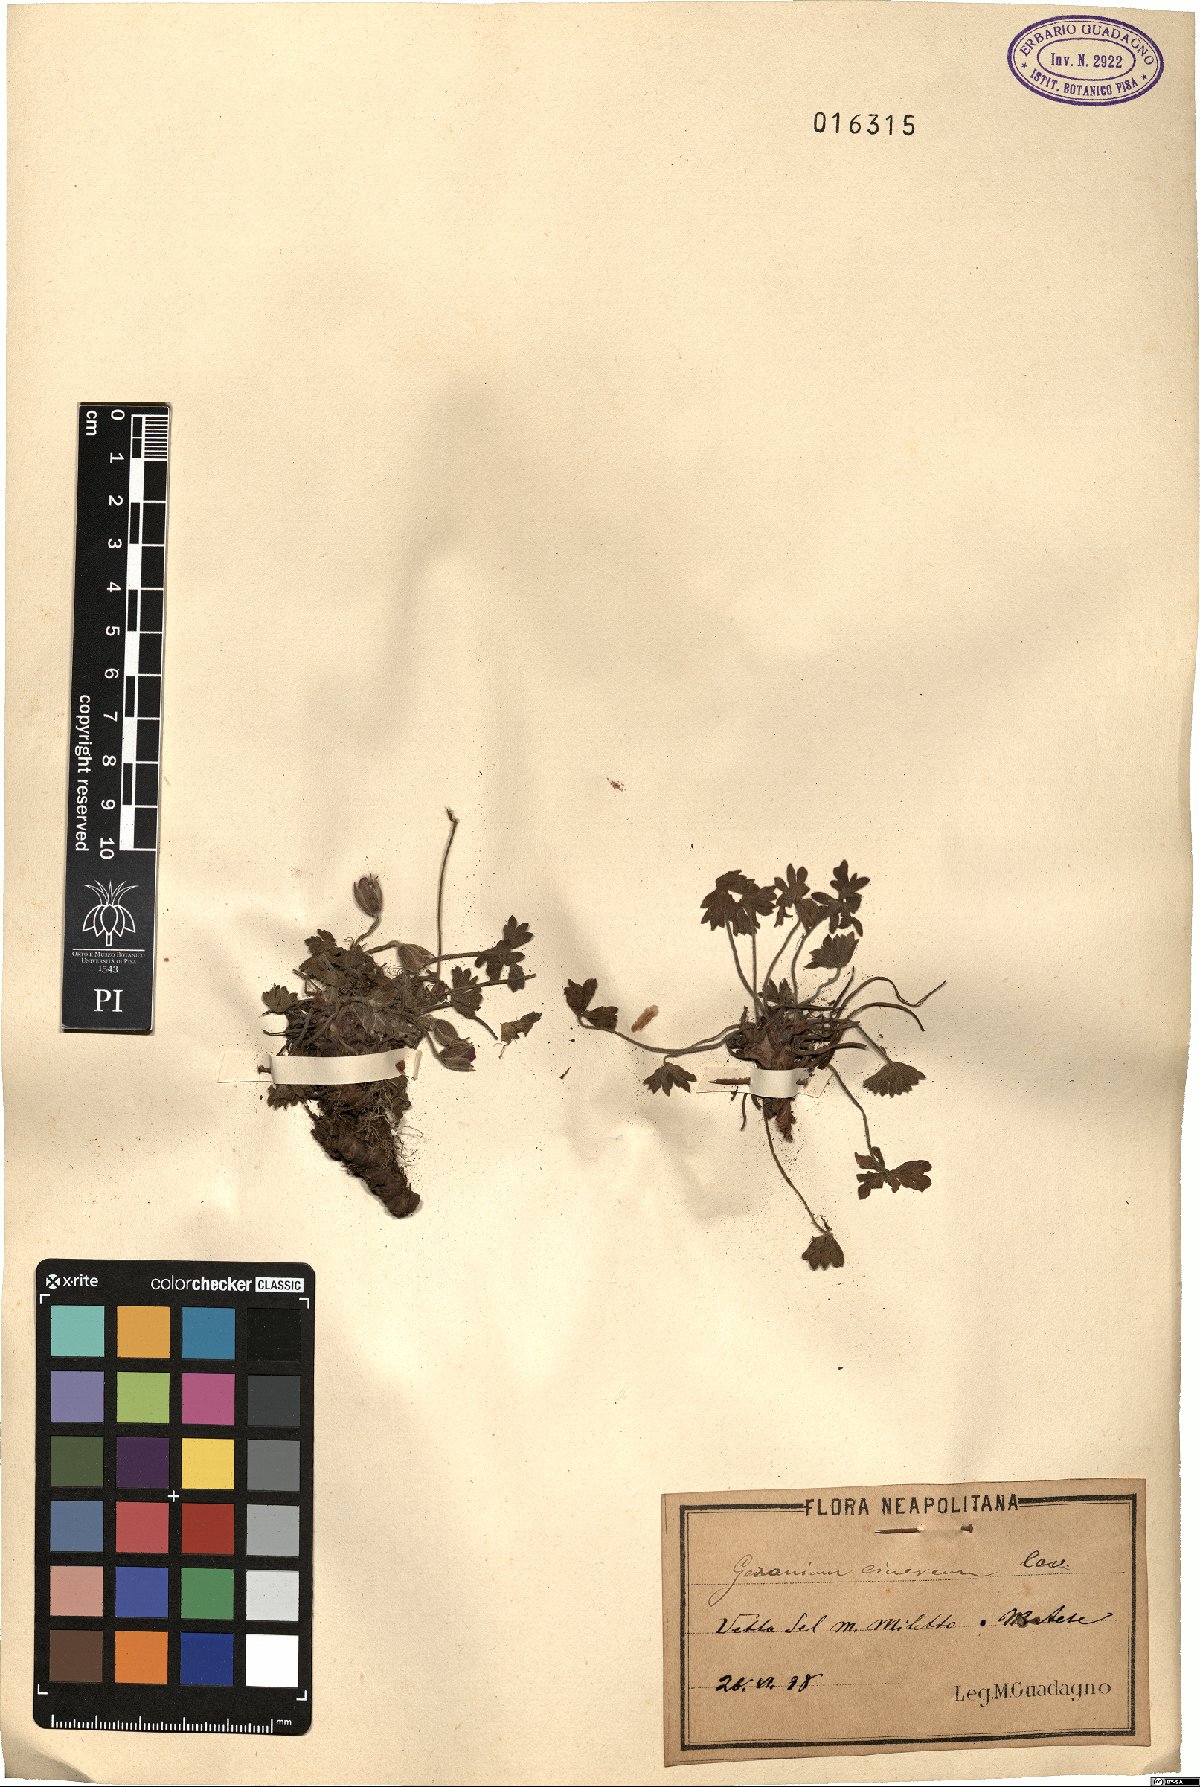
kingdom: Plantae
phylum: Tracheophyta
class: Magnoliopsida
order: Geraniales
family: Geraniaceae
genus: Geranium
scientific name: Geranium cinereum
